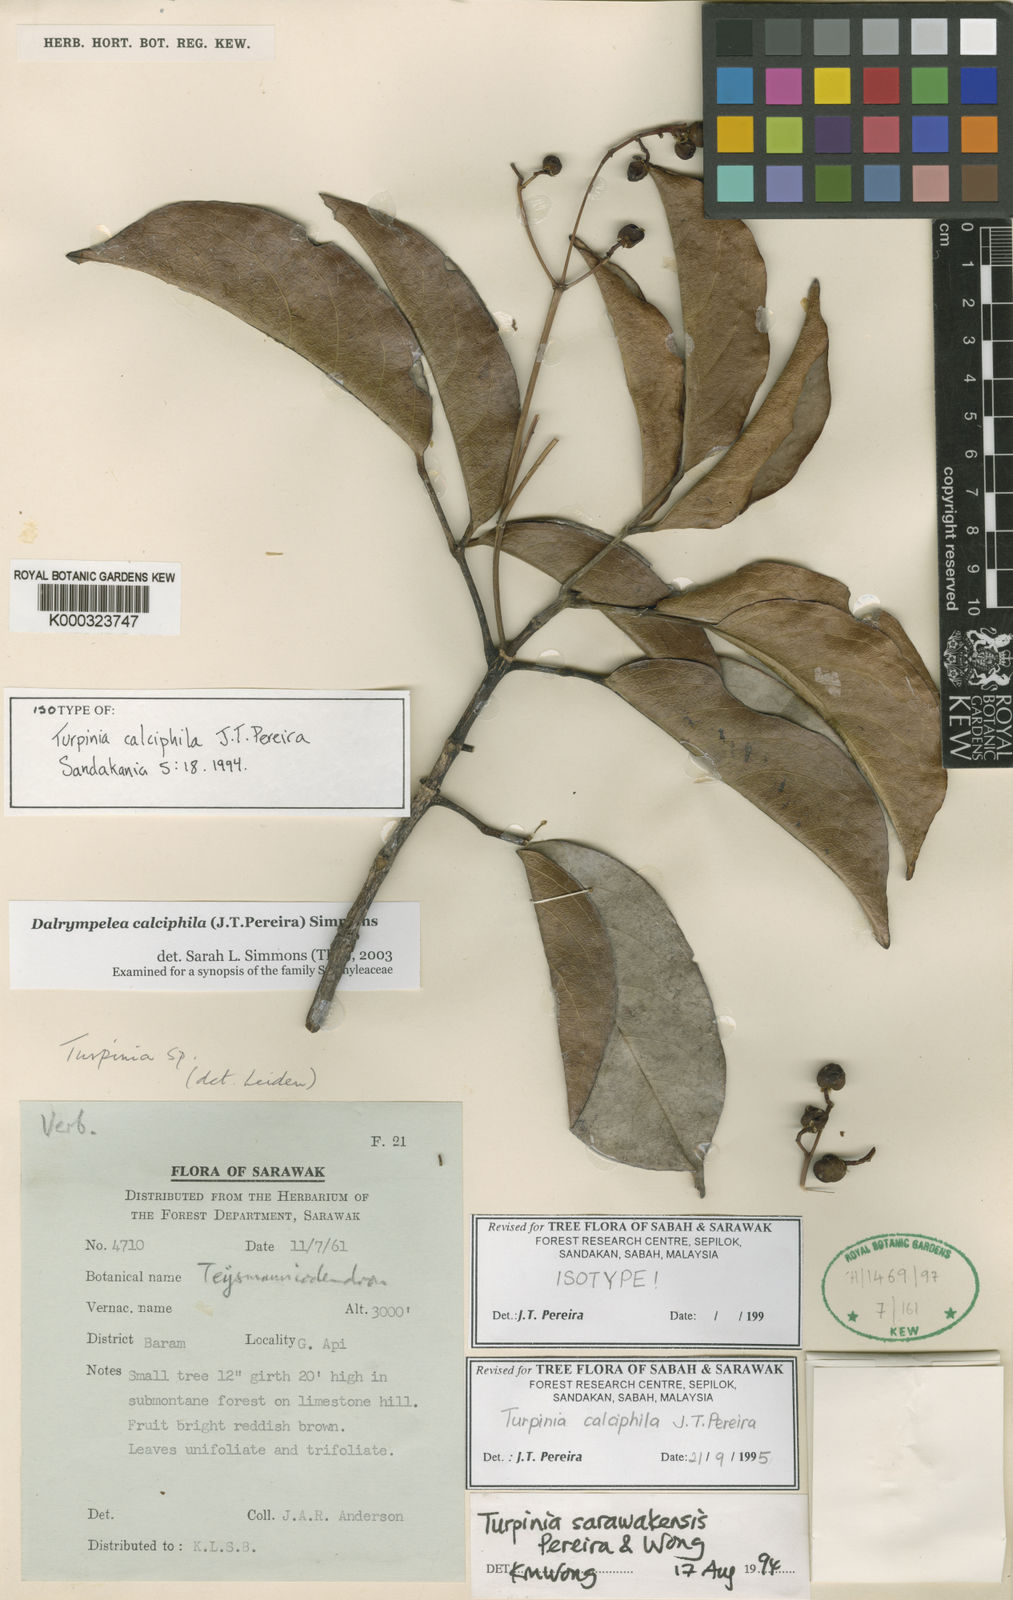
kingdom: Plantae
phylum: Tracheophyta
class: Magnoliopsida
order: Crossosomatales
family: Staphyleaceae
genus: Dalrympelea
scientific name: Dalrympelea calciphila
